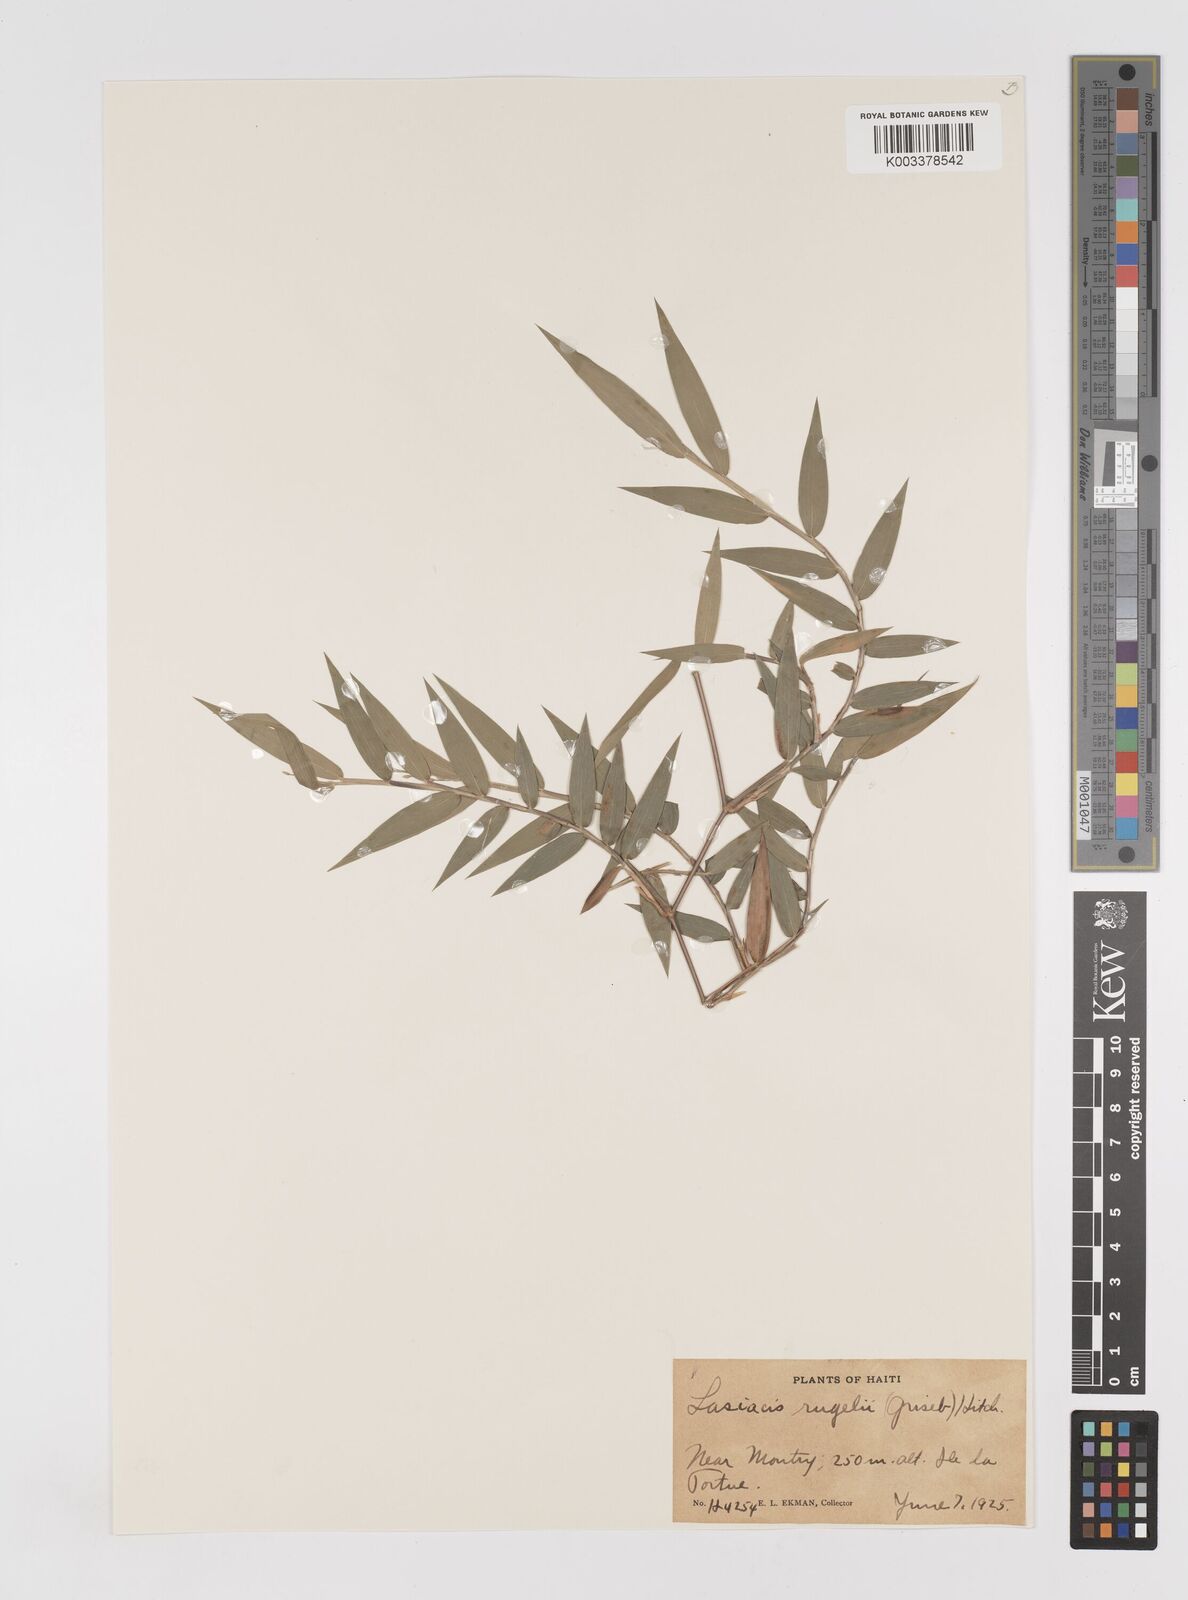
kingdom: Plantae
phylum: Tracheophyta
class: Liliopsida
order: Poales
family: Poaceae
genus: Lasiacis
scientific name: Lasiacis rugelii
